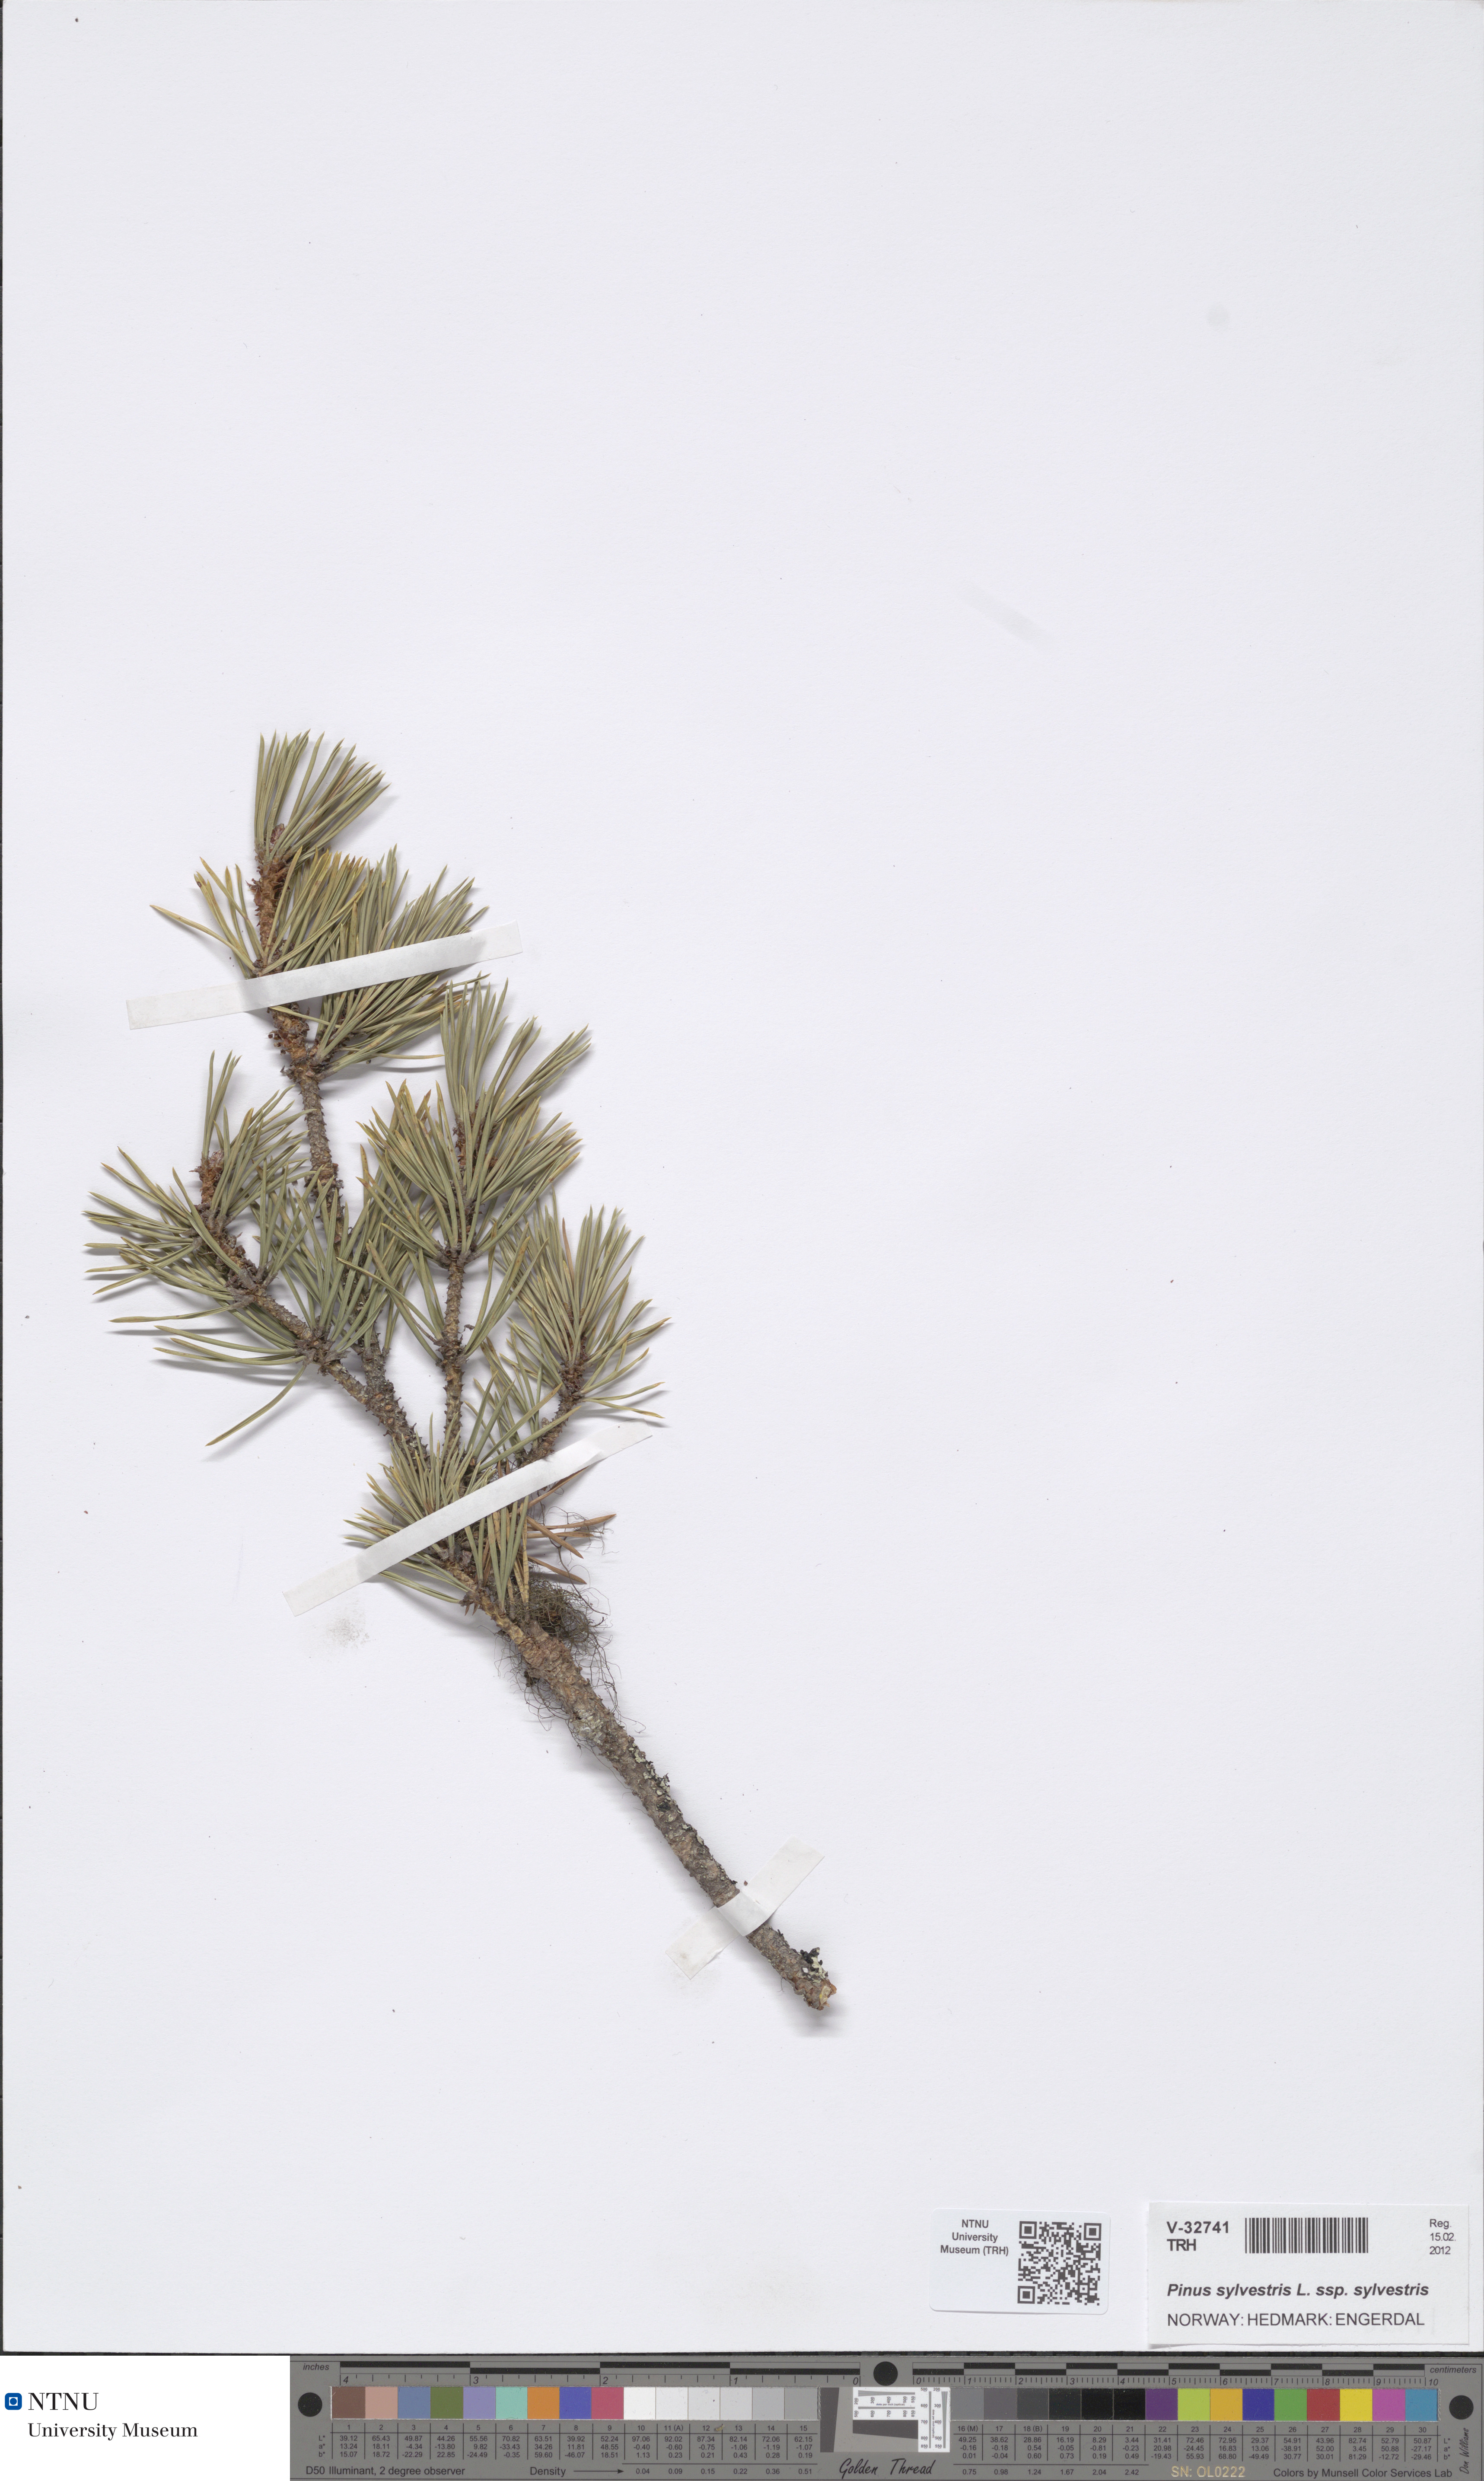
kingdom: Plantae
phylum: Tracheophyta
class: Pinopsida
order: Pinales
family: Pinaceae
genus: Pinus
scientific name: Pinus sylvestris
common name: Scots pine
